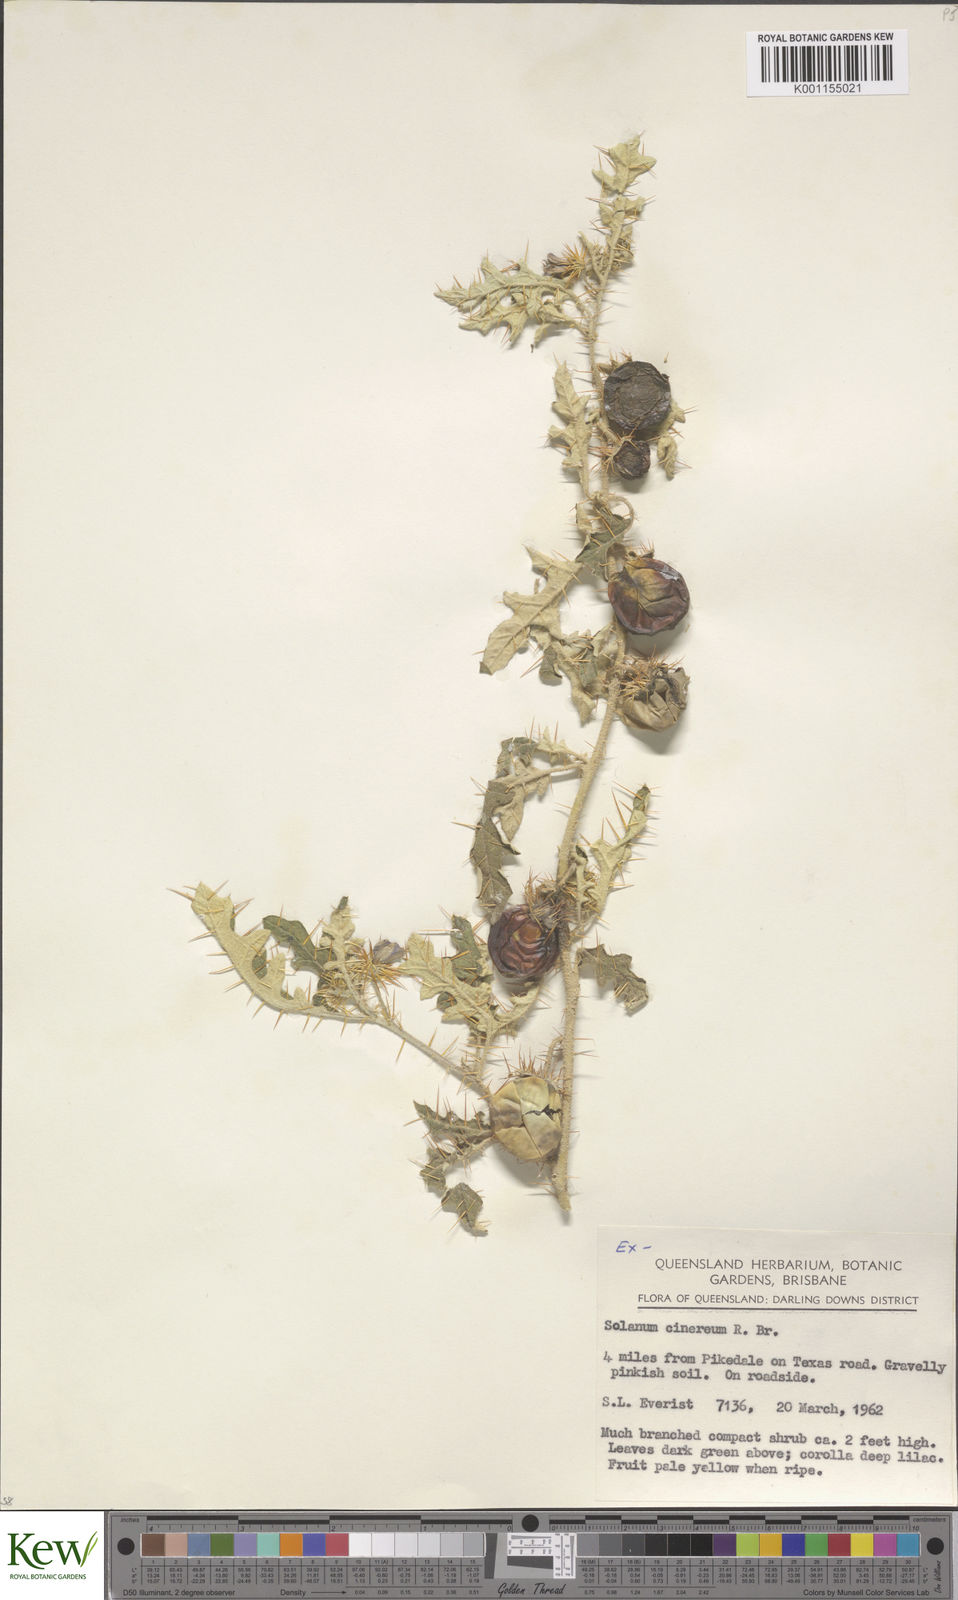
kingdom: Plantae
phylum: Tracheophyta
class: Magnoliopsida
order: Solanales
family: Solanaceae
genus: Solanum
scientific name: Solanum cinereum
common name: Narrawa-bur
